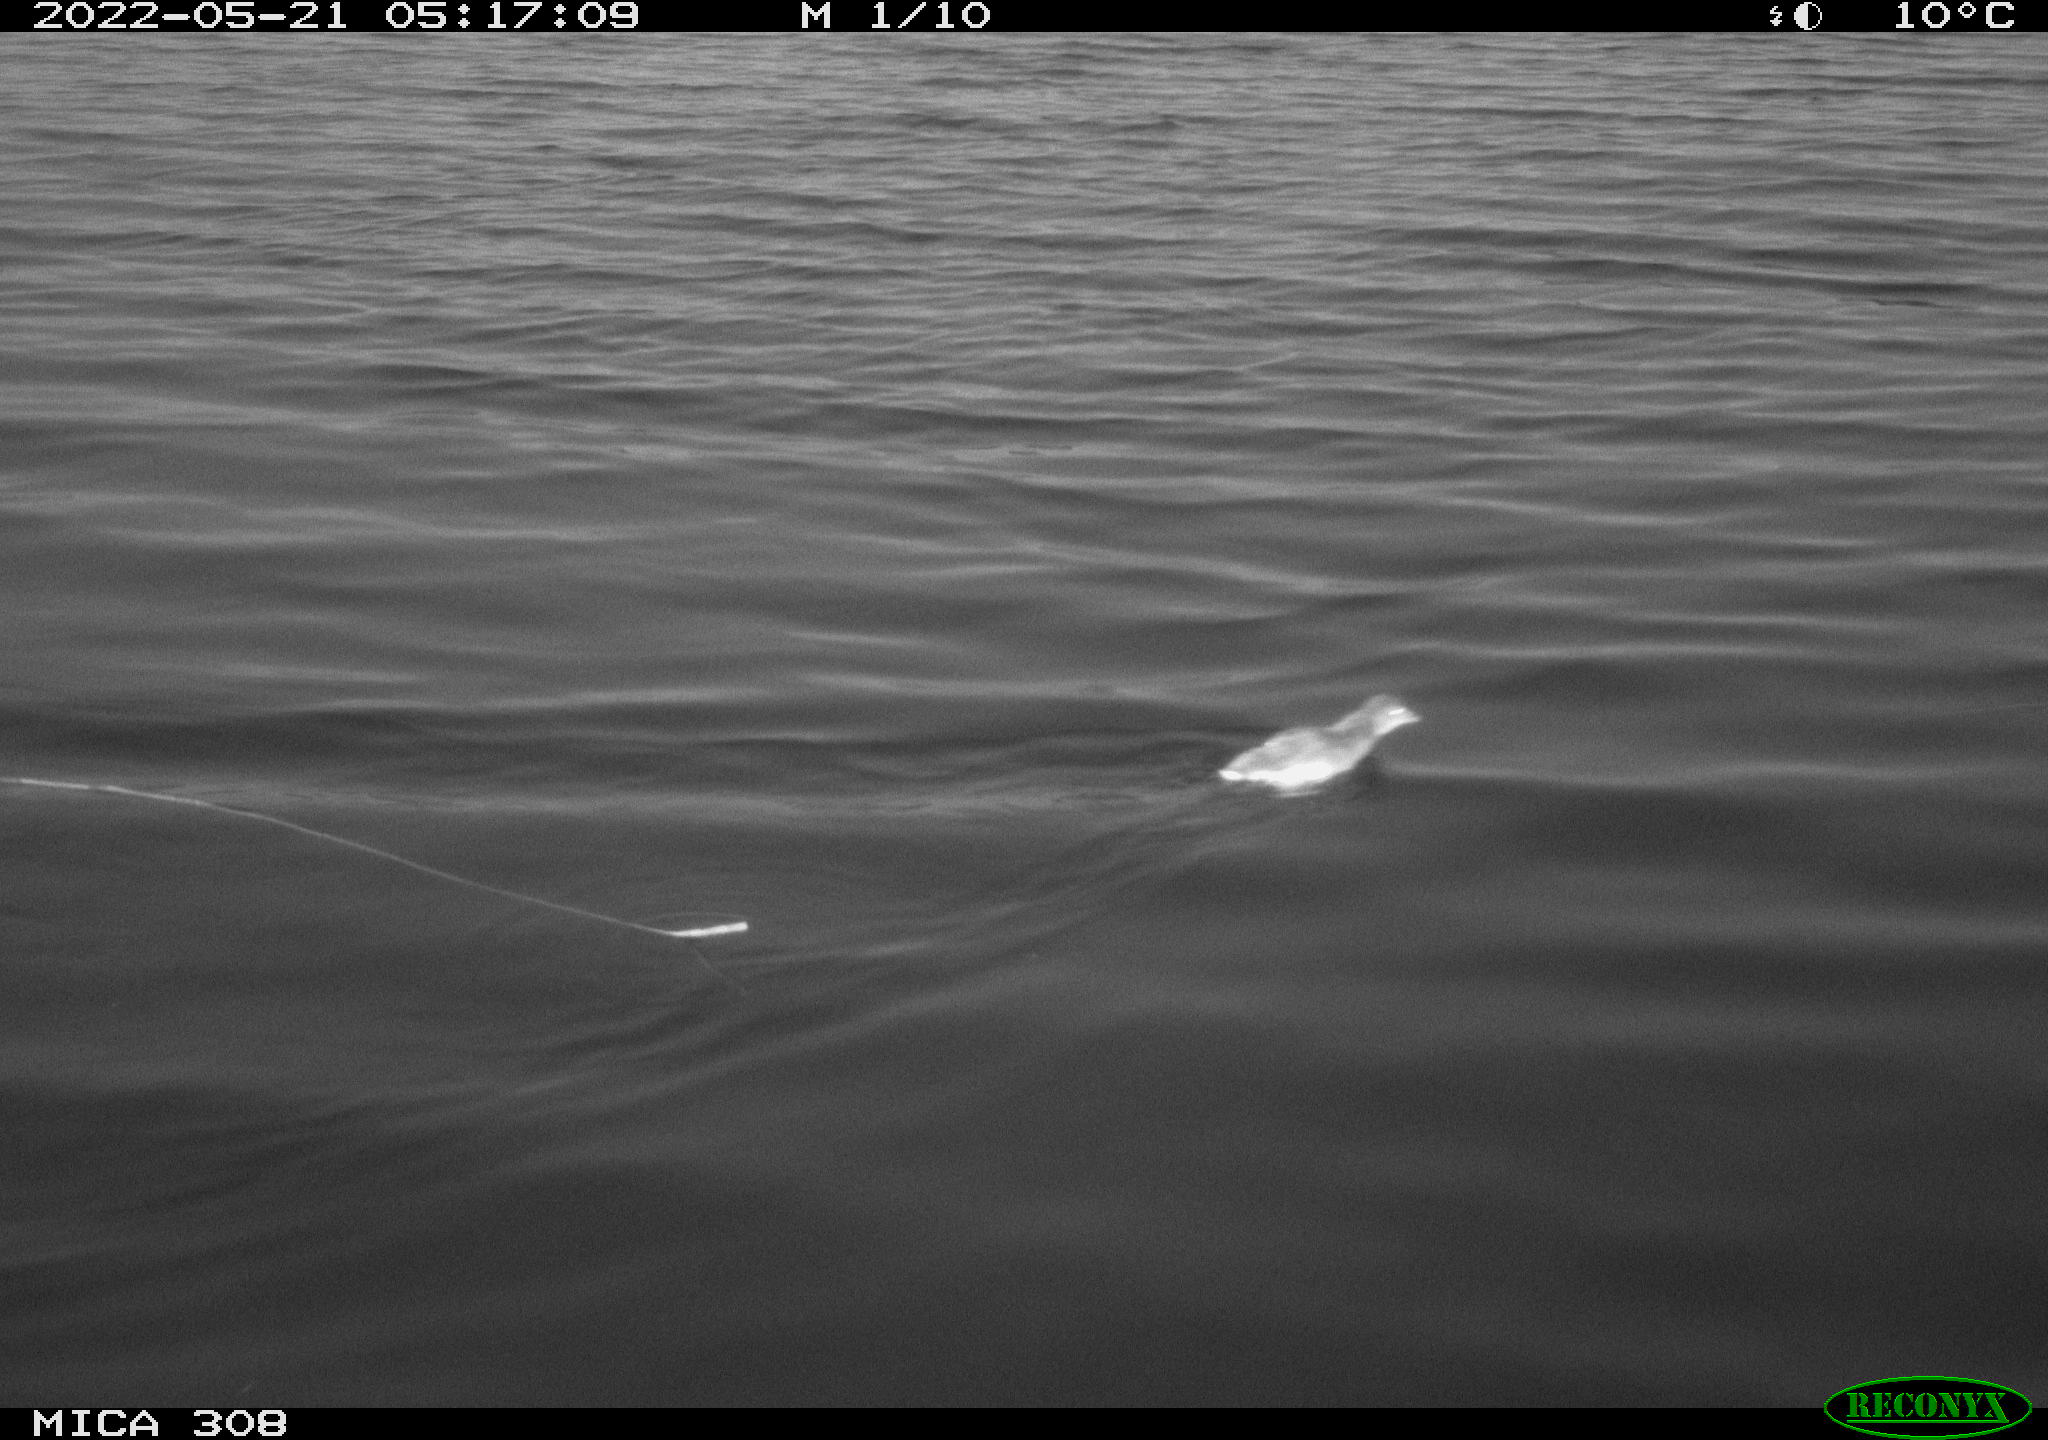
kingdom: Animalia
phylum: Chordata
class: Aves
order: Gruiformes
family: Rallidae
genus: Gallinula
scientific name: Gallinula chloropus
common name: Common moorhen
